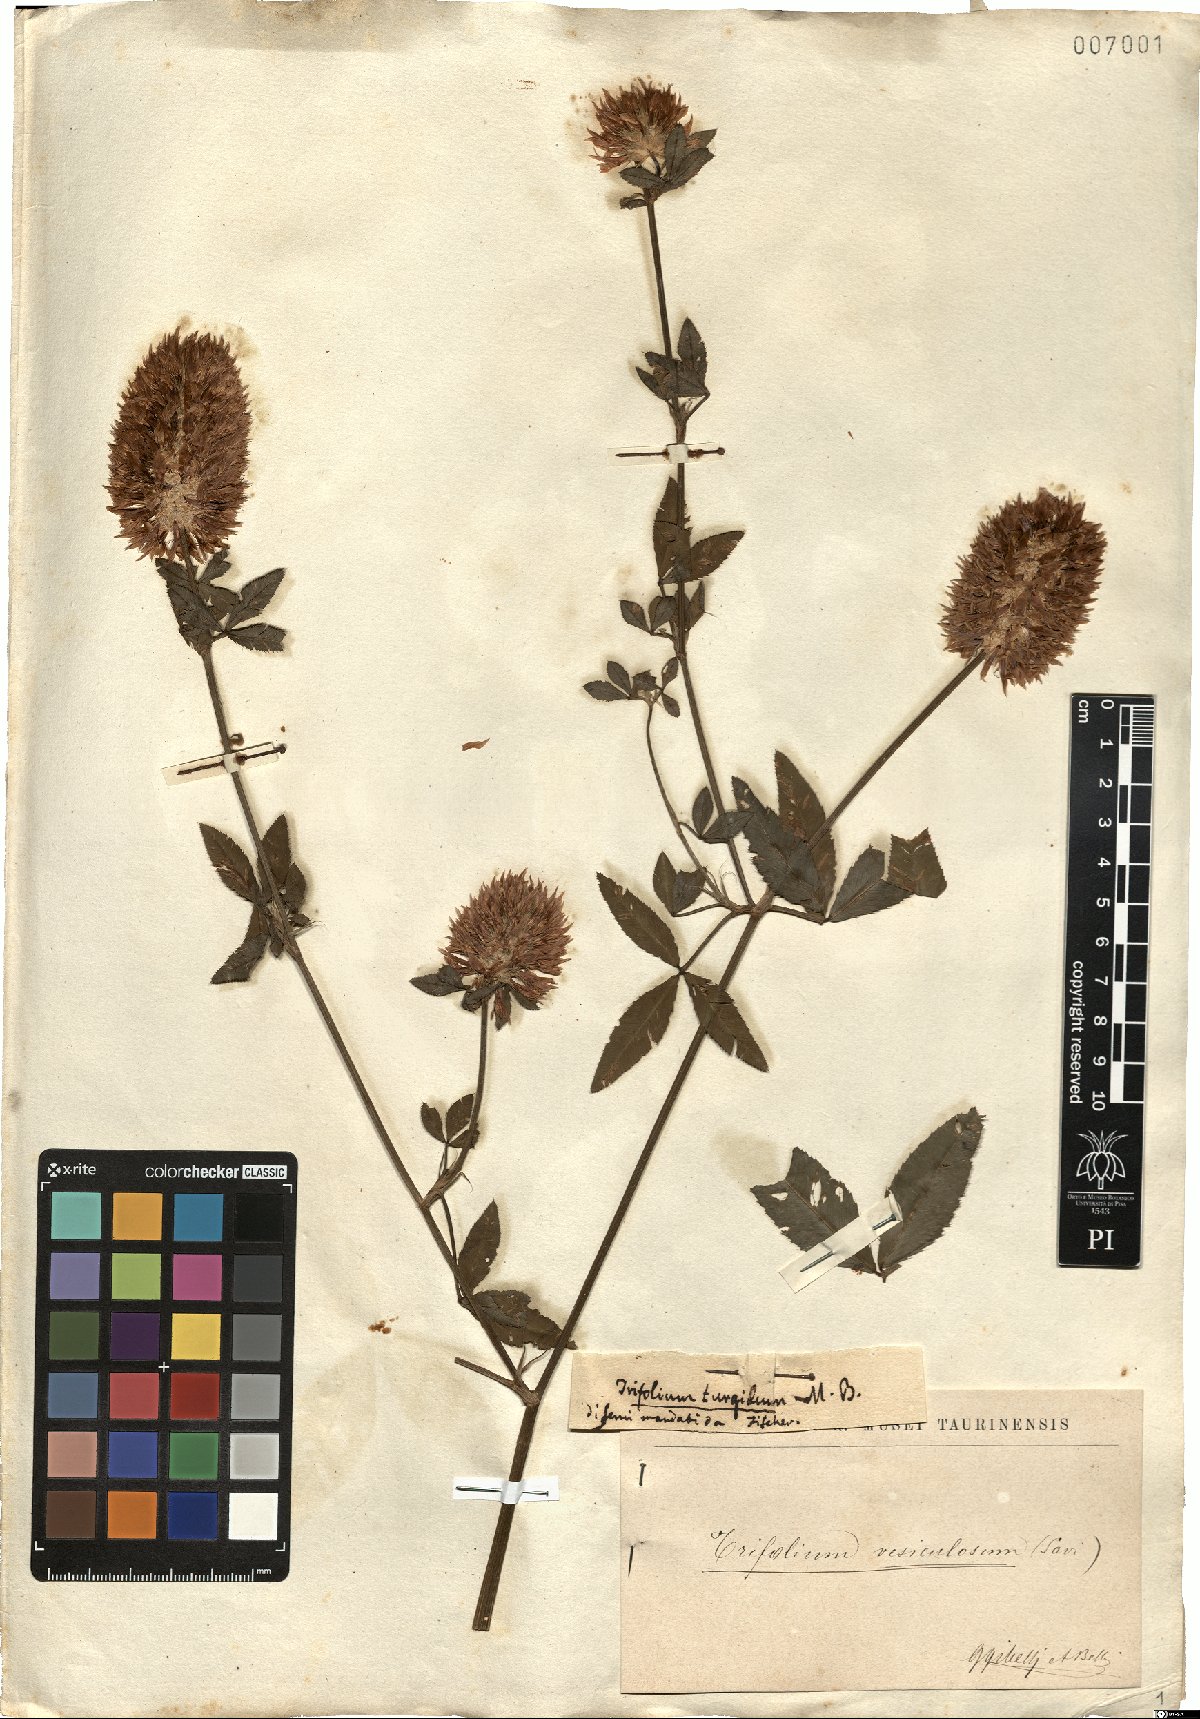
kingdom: Plantae
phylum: Tracheophyta
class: Magnoliopsida
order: Fabales
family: Fabaceae
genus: Trifolium
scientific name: Trifolium vesiculosum
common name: Arrowleaf clover
